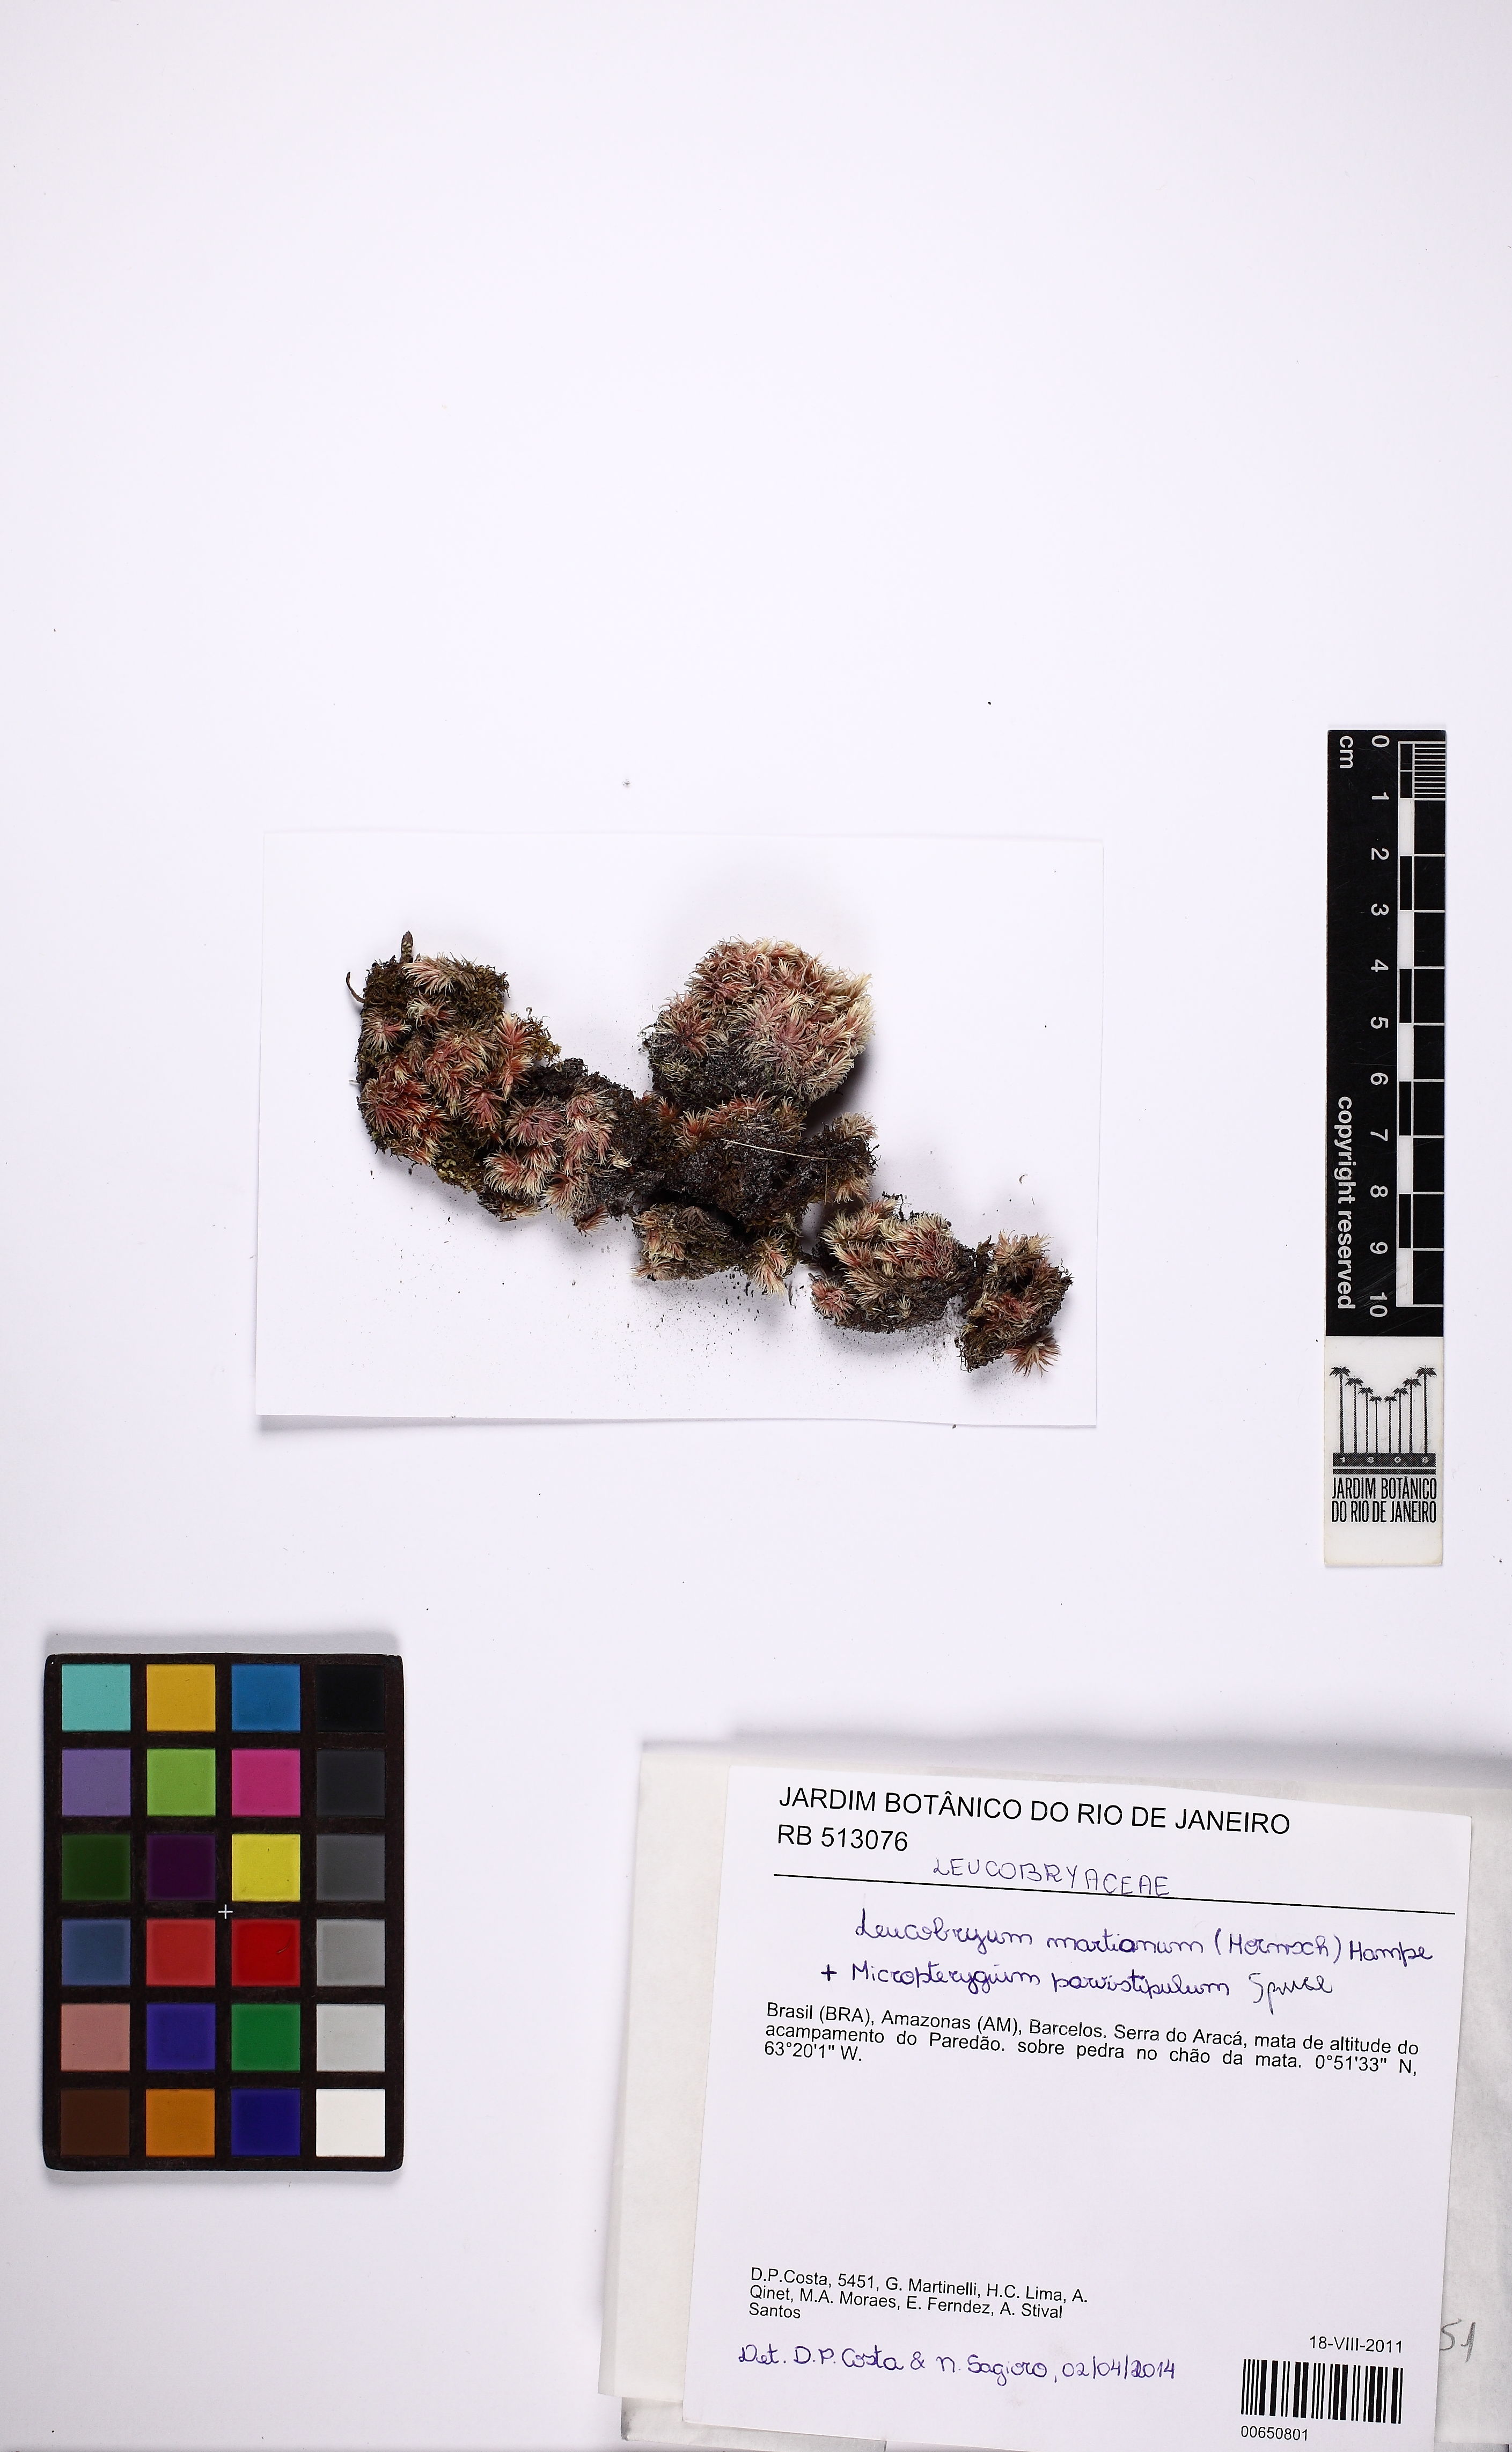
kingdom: Plantae
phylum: Bryophyta
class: Bryopsida
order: Dicranales
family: Leucobryaceae
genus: Leucobryum
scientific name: Leucobryum martianum
